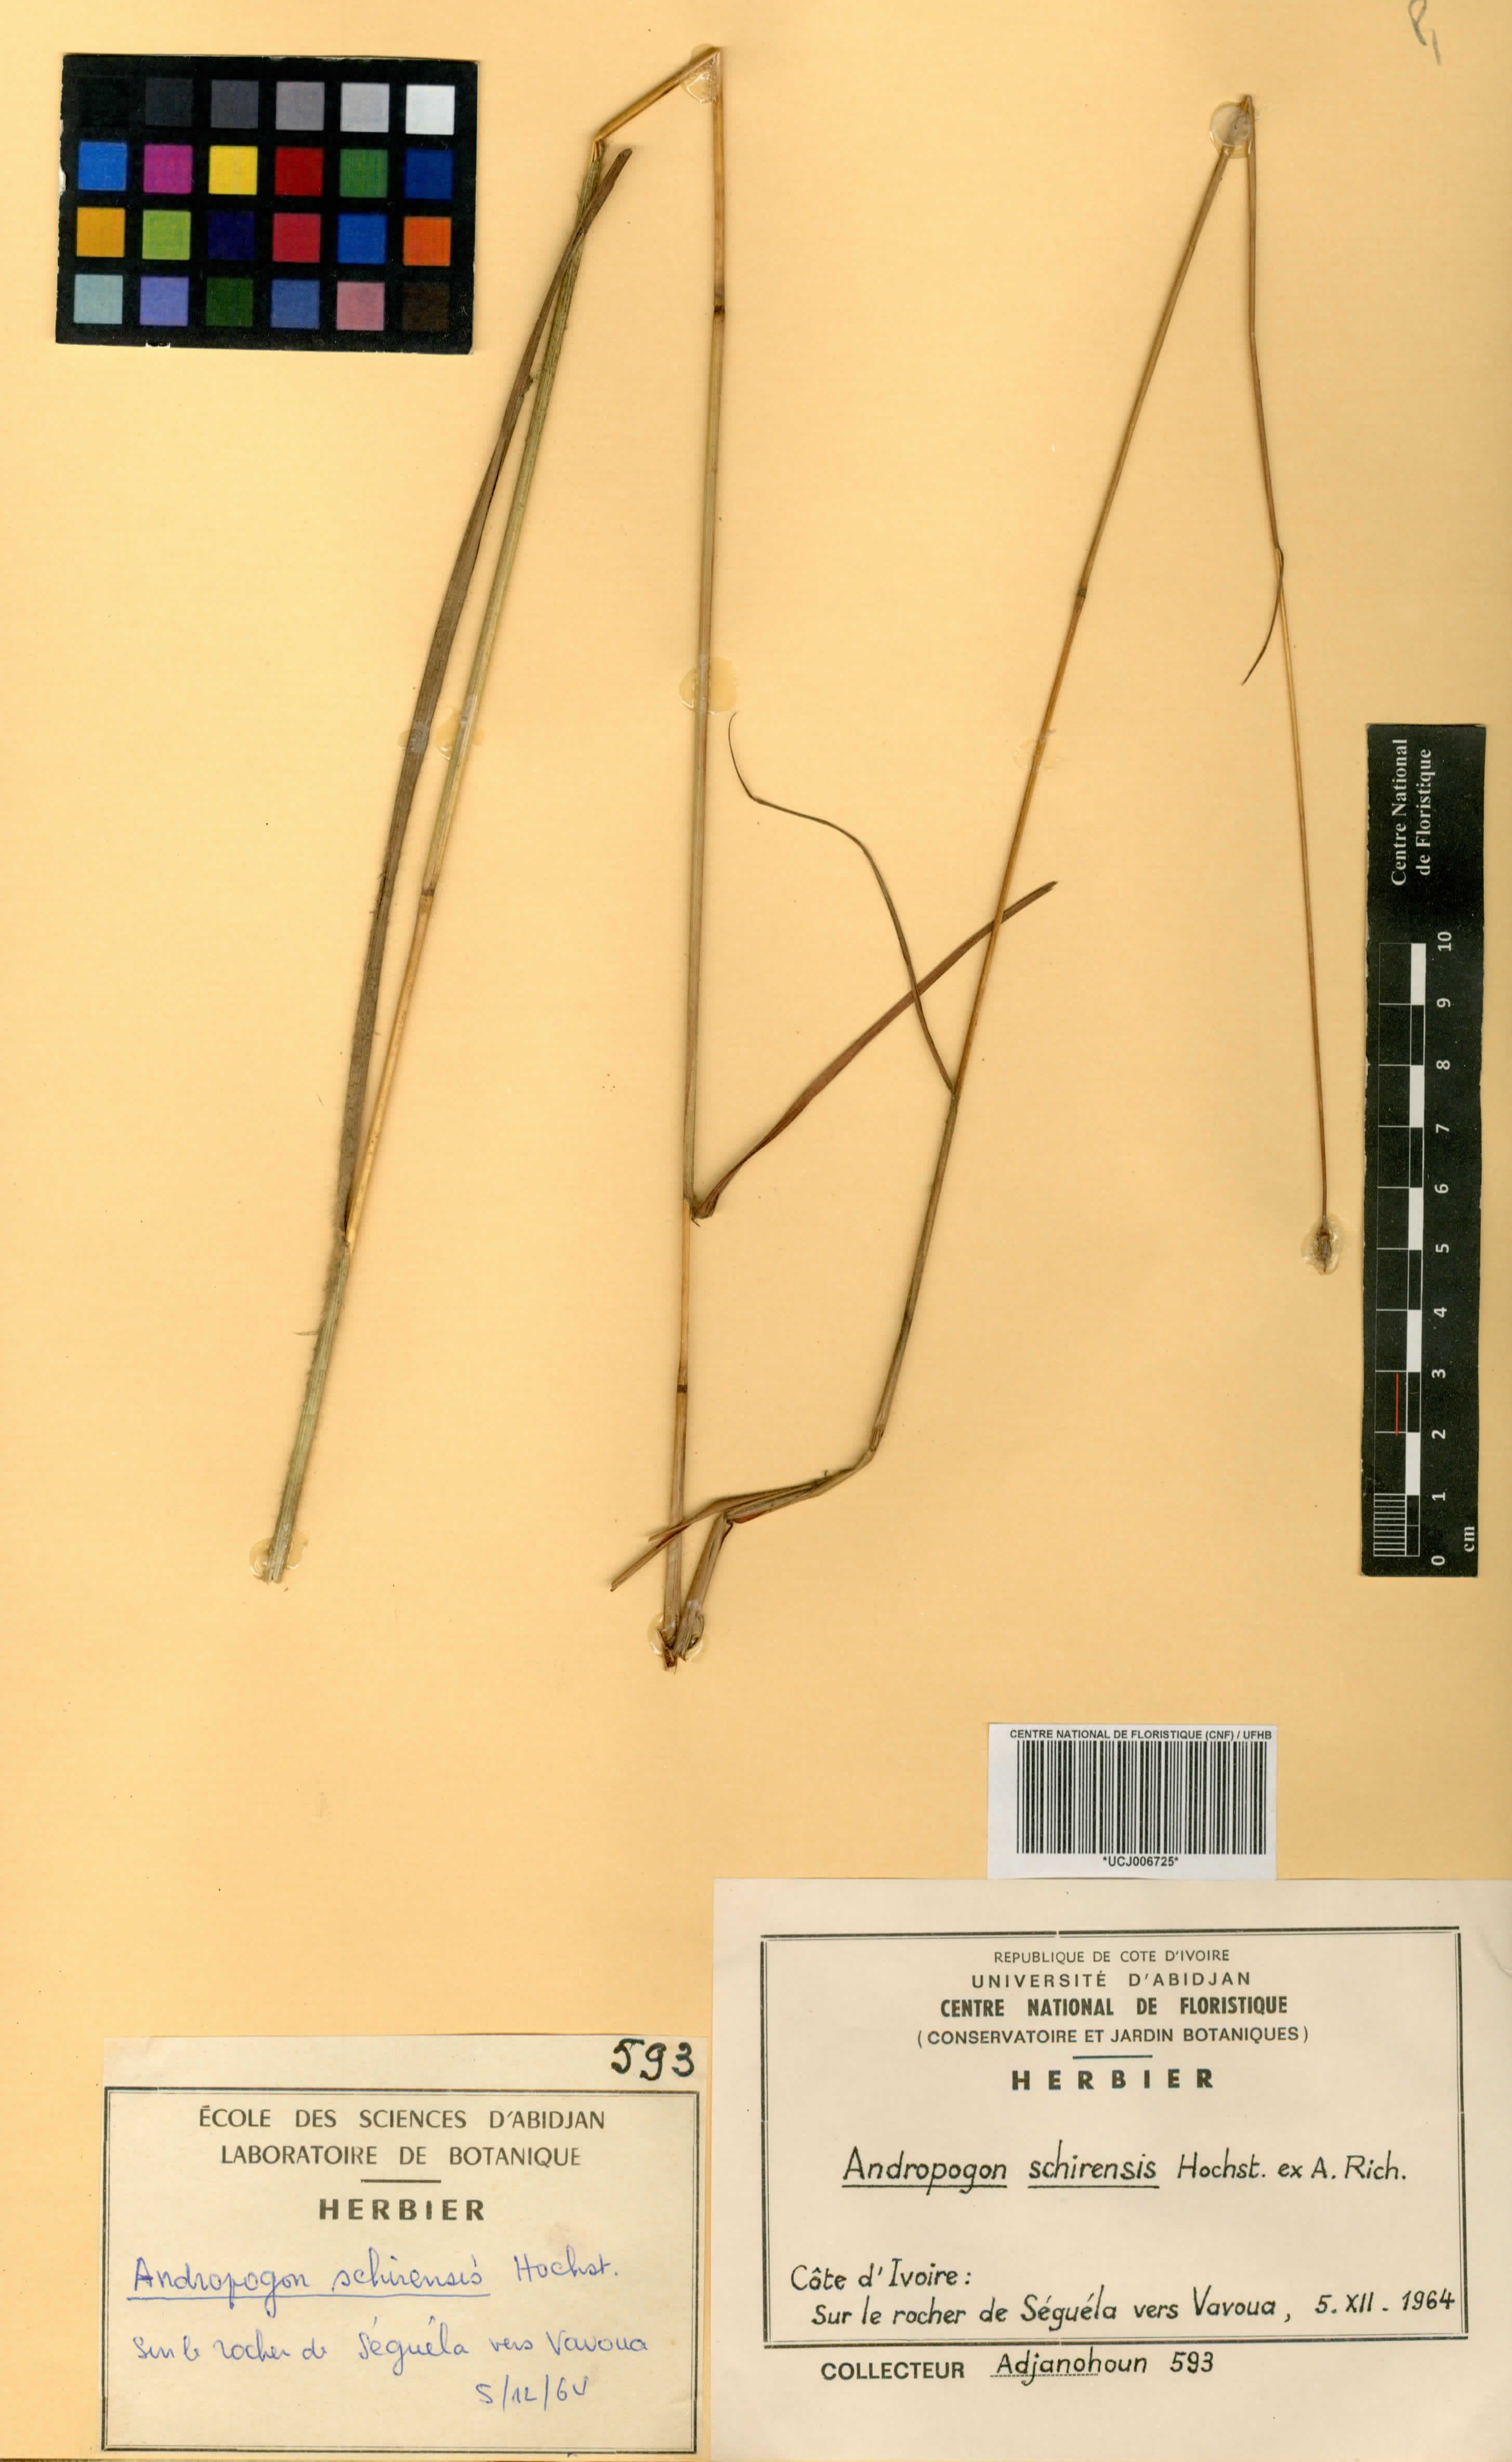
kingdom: Plantae
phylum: Tracheophyta
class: Liliopsida
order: Poales
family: Poaceae
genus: Andropogon
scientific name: Andropogon schirensis
